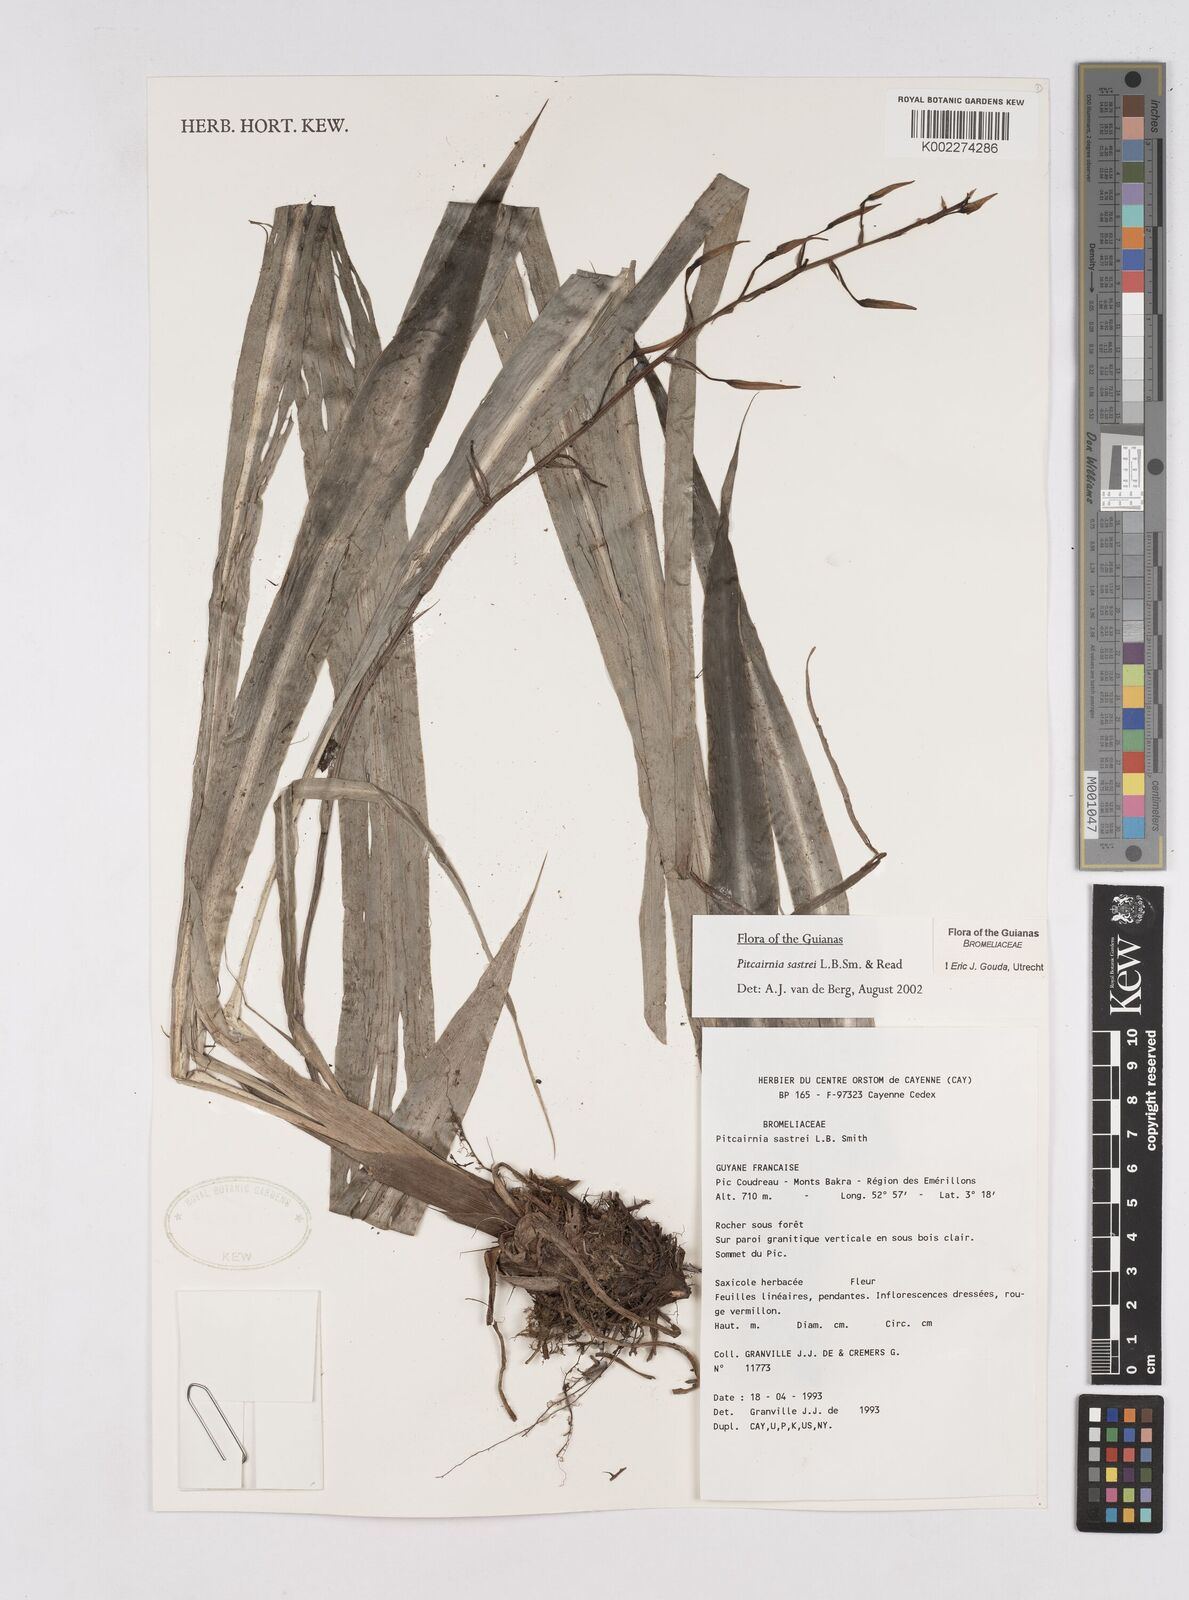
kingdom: Plantae
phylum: Tracheophyta
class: Liliopsida
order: Poales
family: Bromeliaceae
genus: Pitcairnia
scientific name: Pitcairnia sastrei
